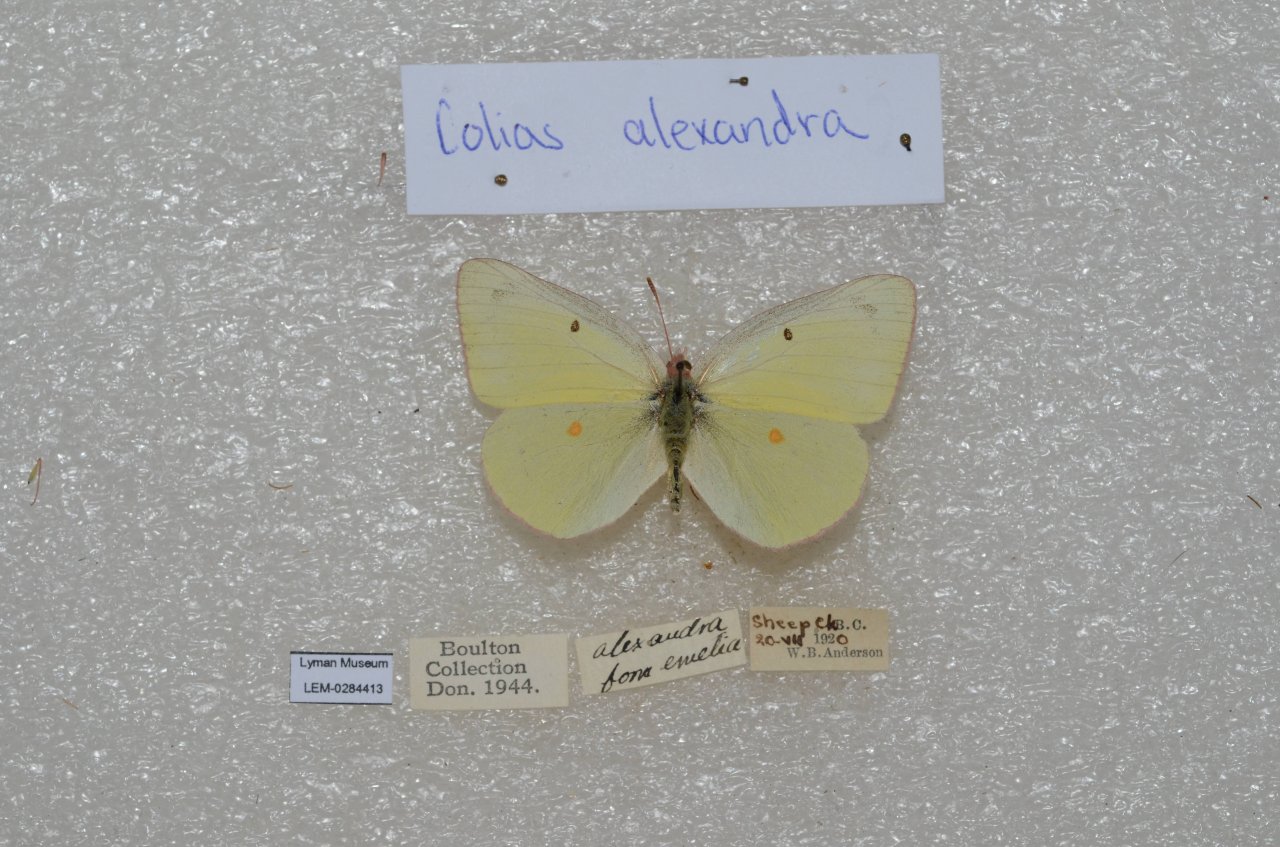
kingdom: Animalia
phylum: Arthropoda
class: Insecta
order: Lepidoptera
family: Pieridae
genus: Colias
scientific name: Colias alexandra
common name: Queen Alexandra's Sulphur
